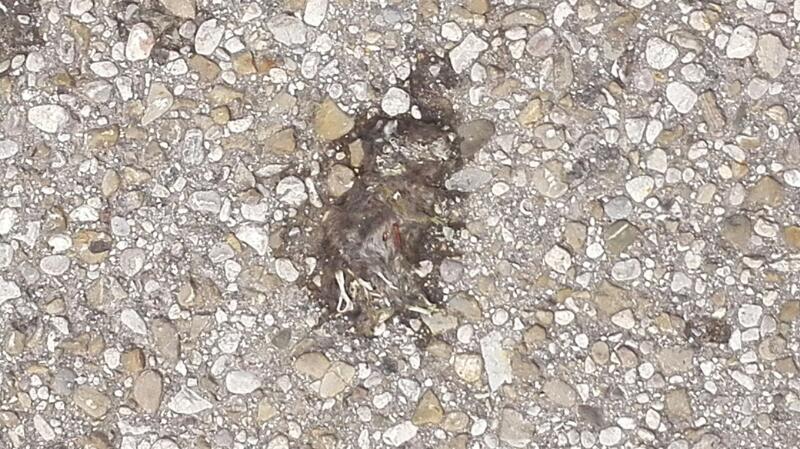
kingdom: Animalia
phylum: Chordata
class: Mammalia
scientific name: Mammalia
